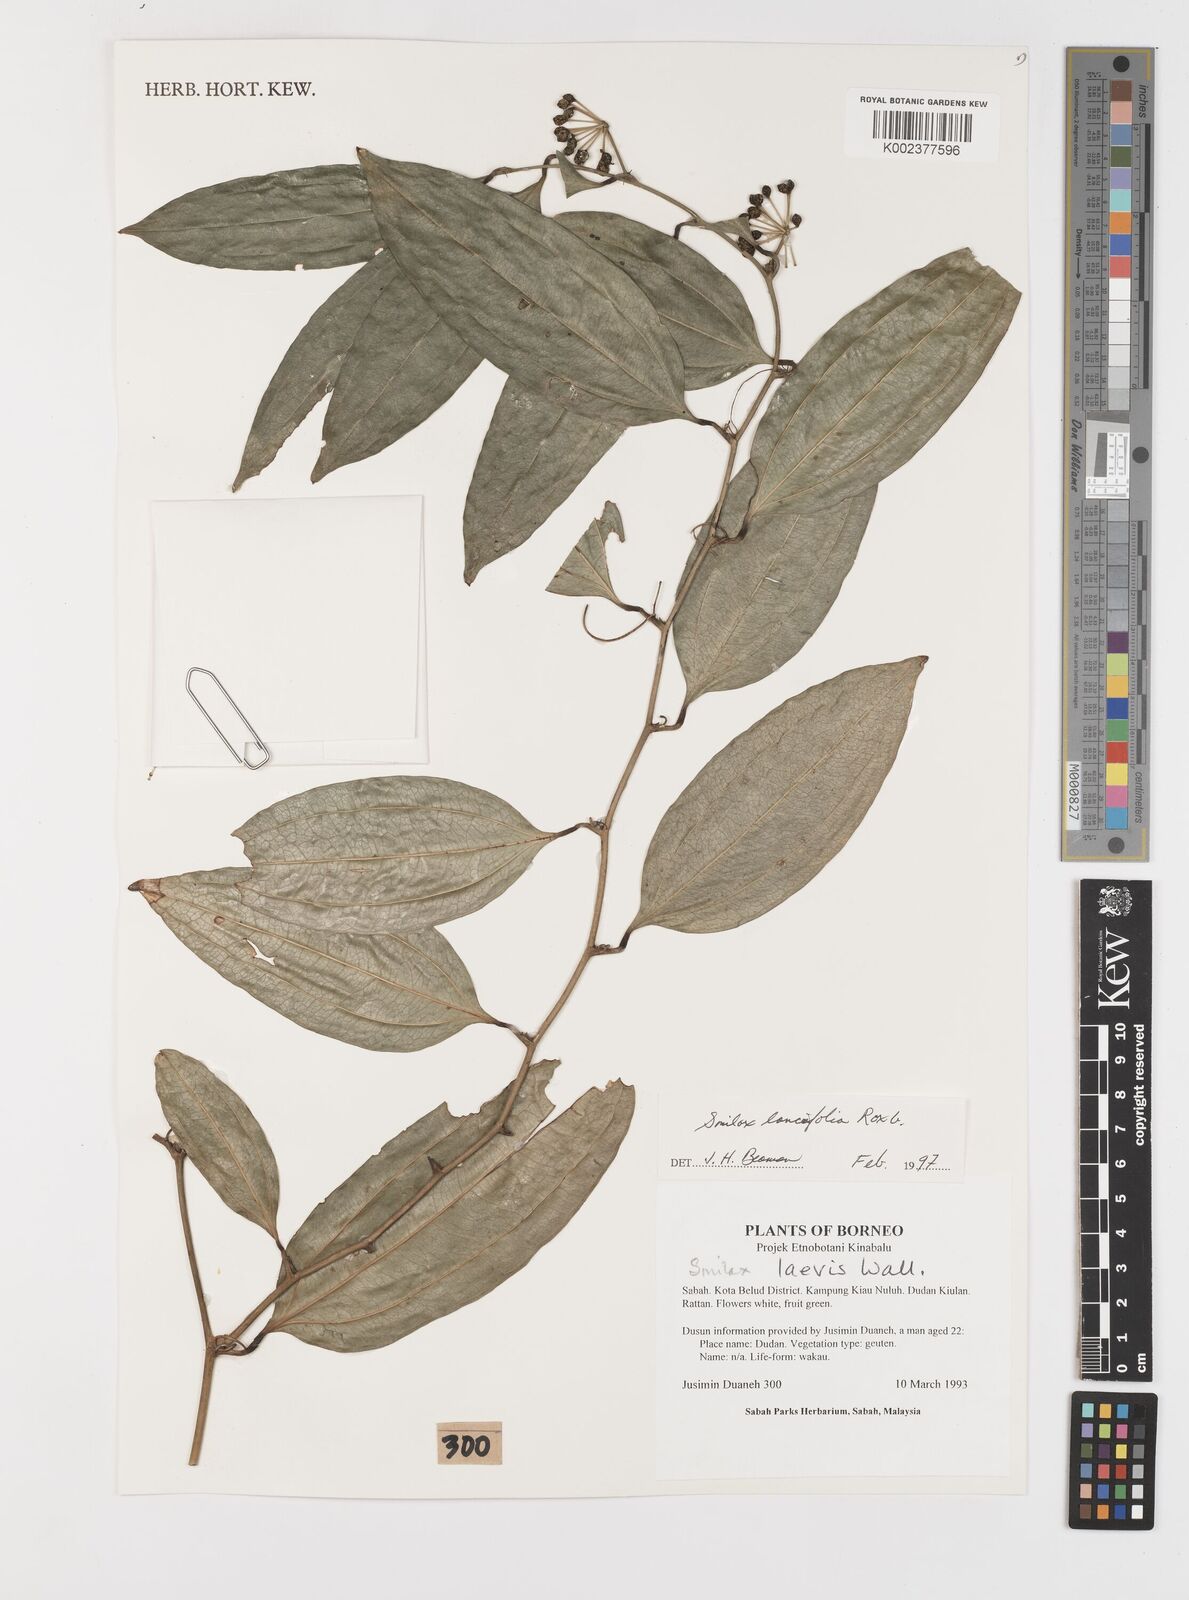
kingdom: Plantae
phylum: Tracheophyta
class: Liliopsida
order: Liliales
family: Smilacaceae
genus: Smilax
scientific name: Smilax lanceifolia
